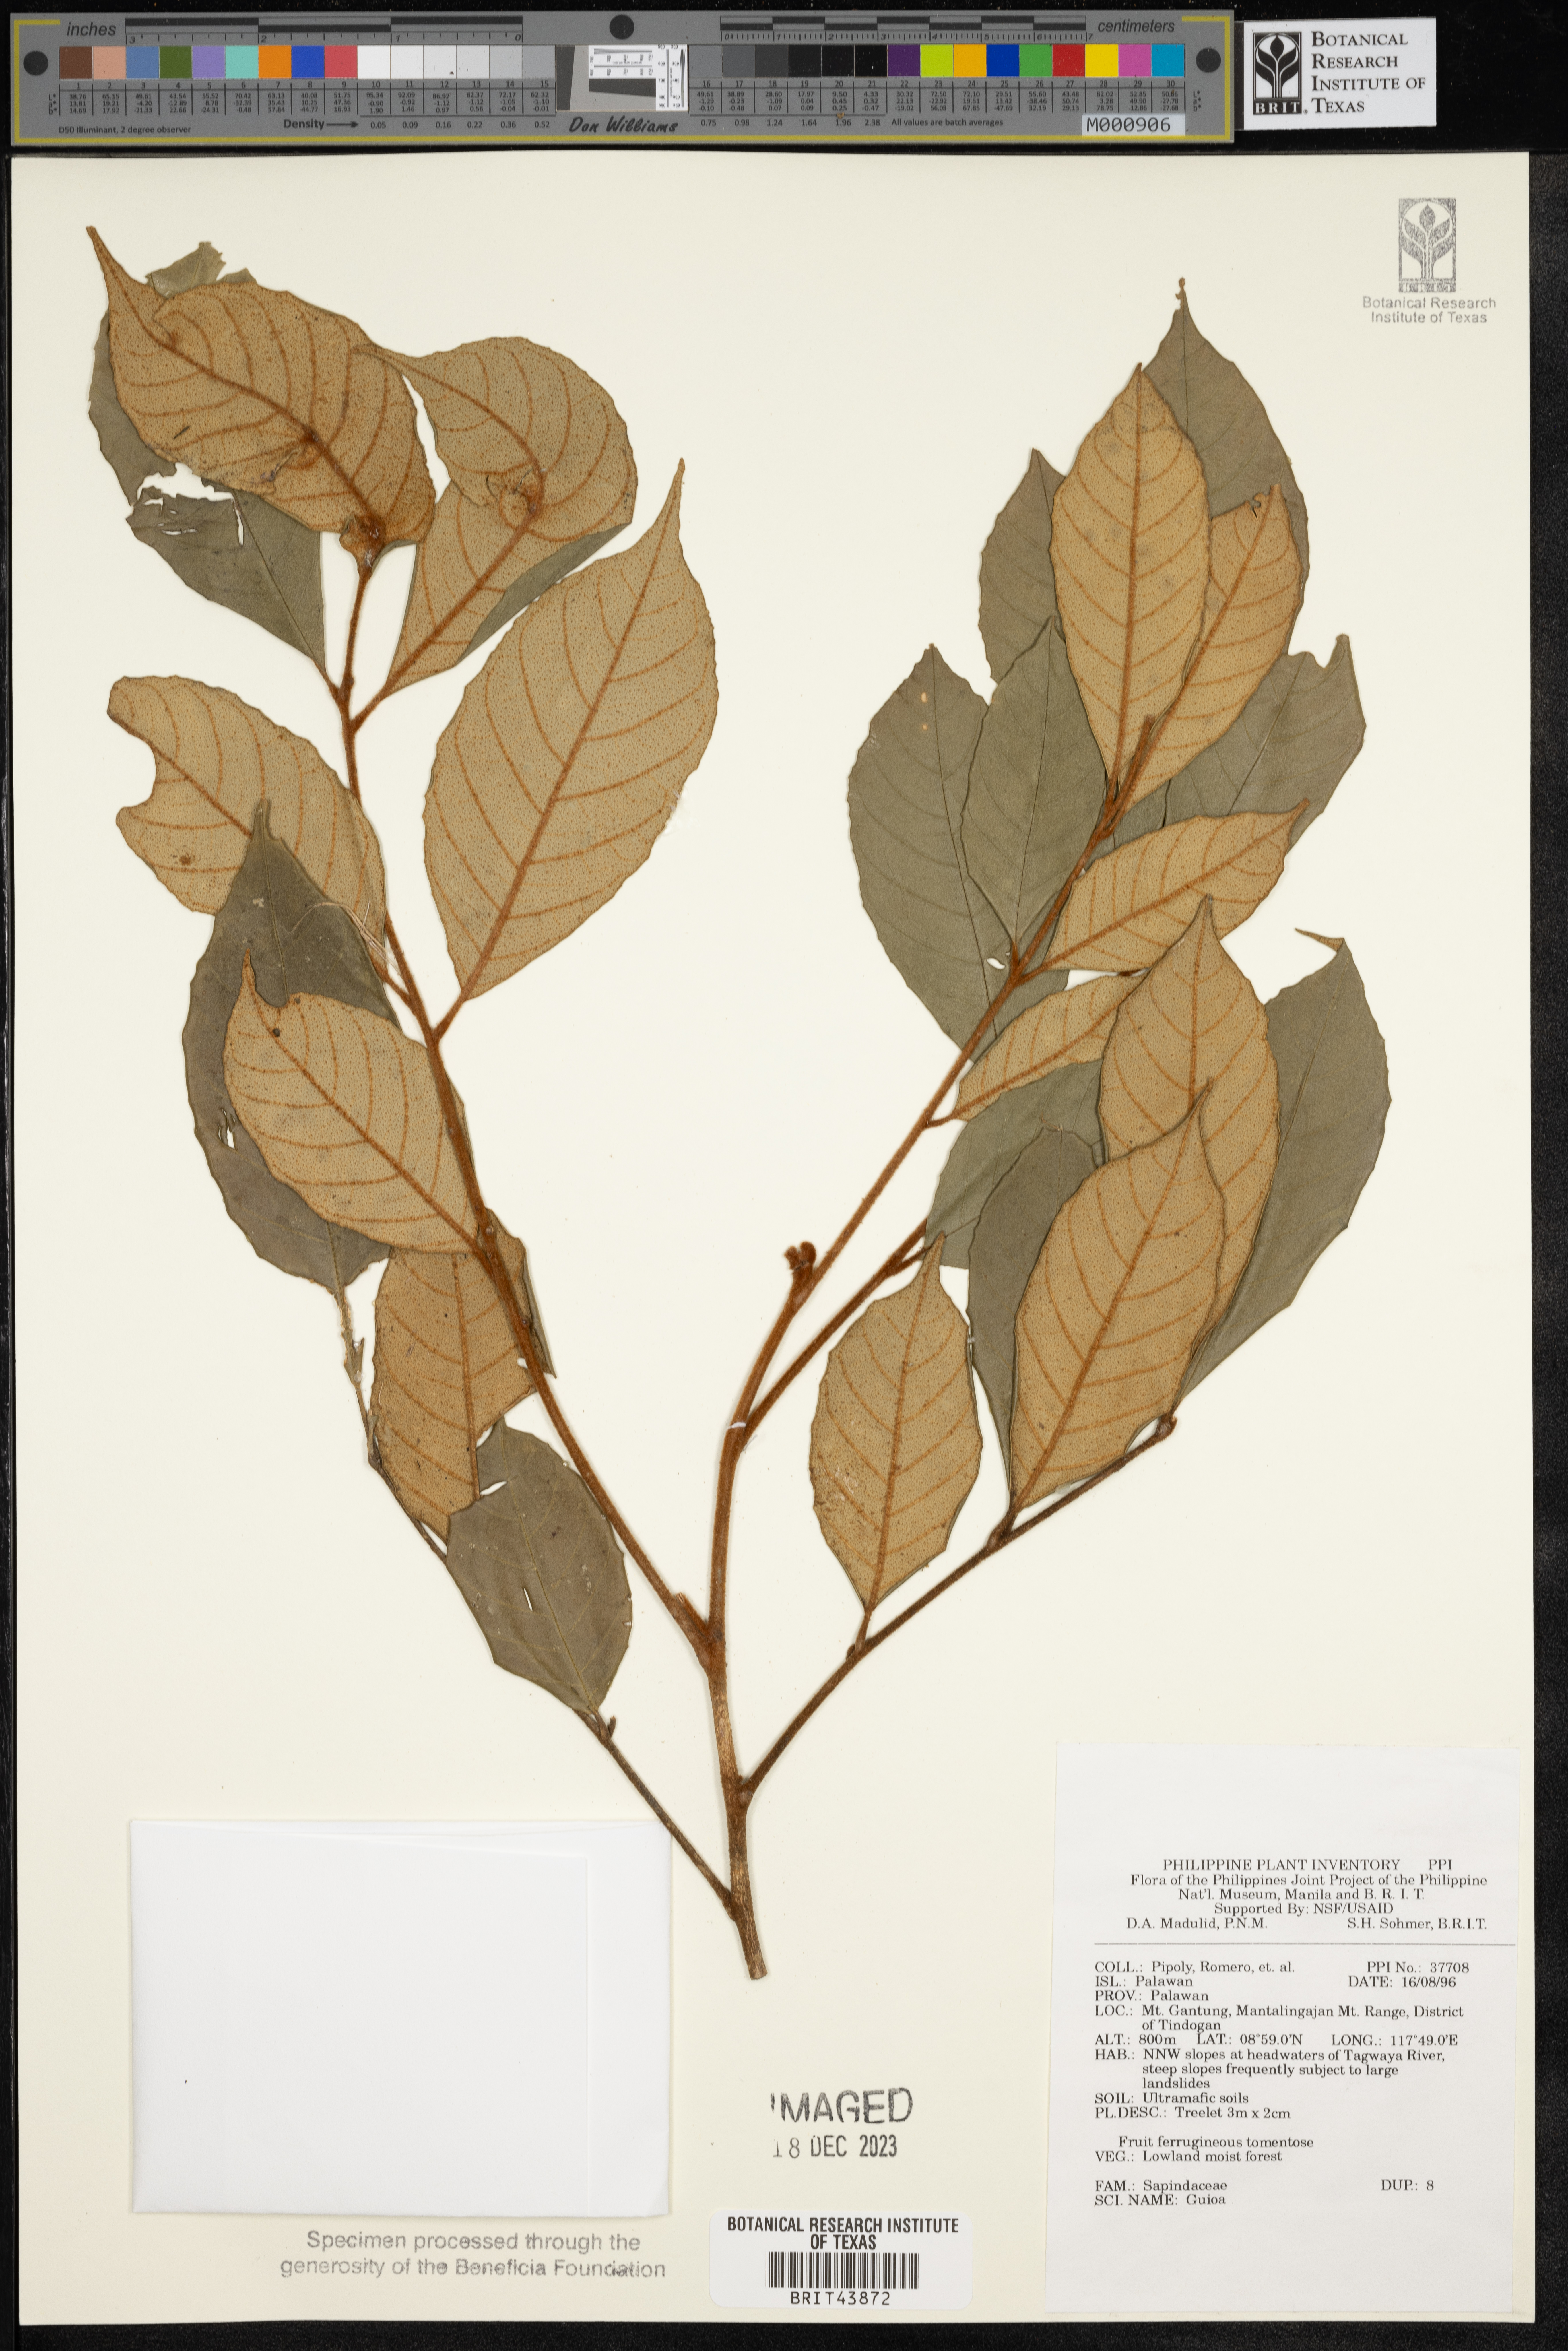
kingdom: Plantae
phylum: Tracheophyta
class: Magnoliopsida
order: Sapindales
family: Sapindaceae
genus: Guioa
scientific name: Guioa
